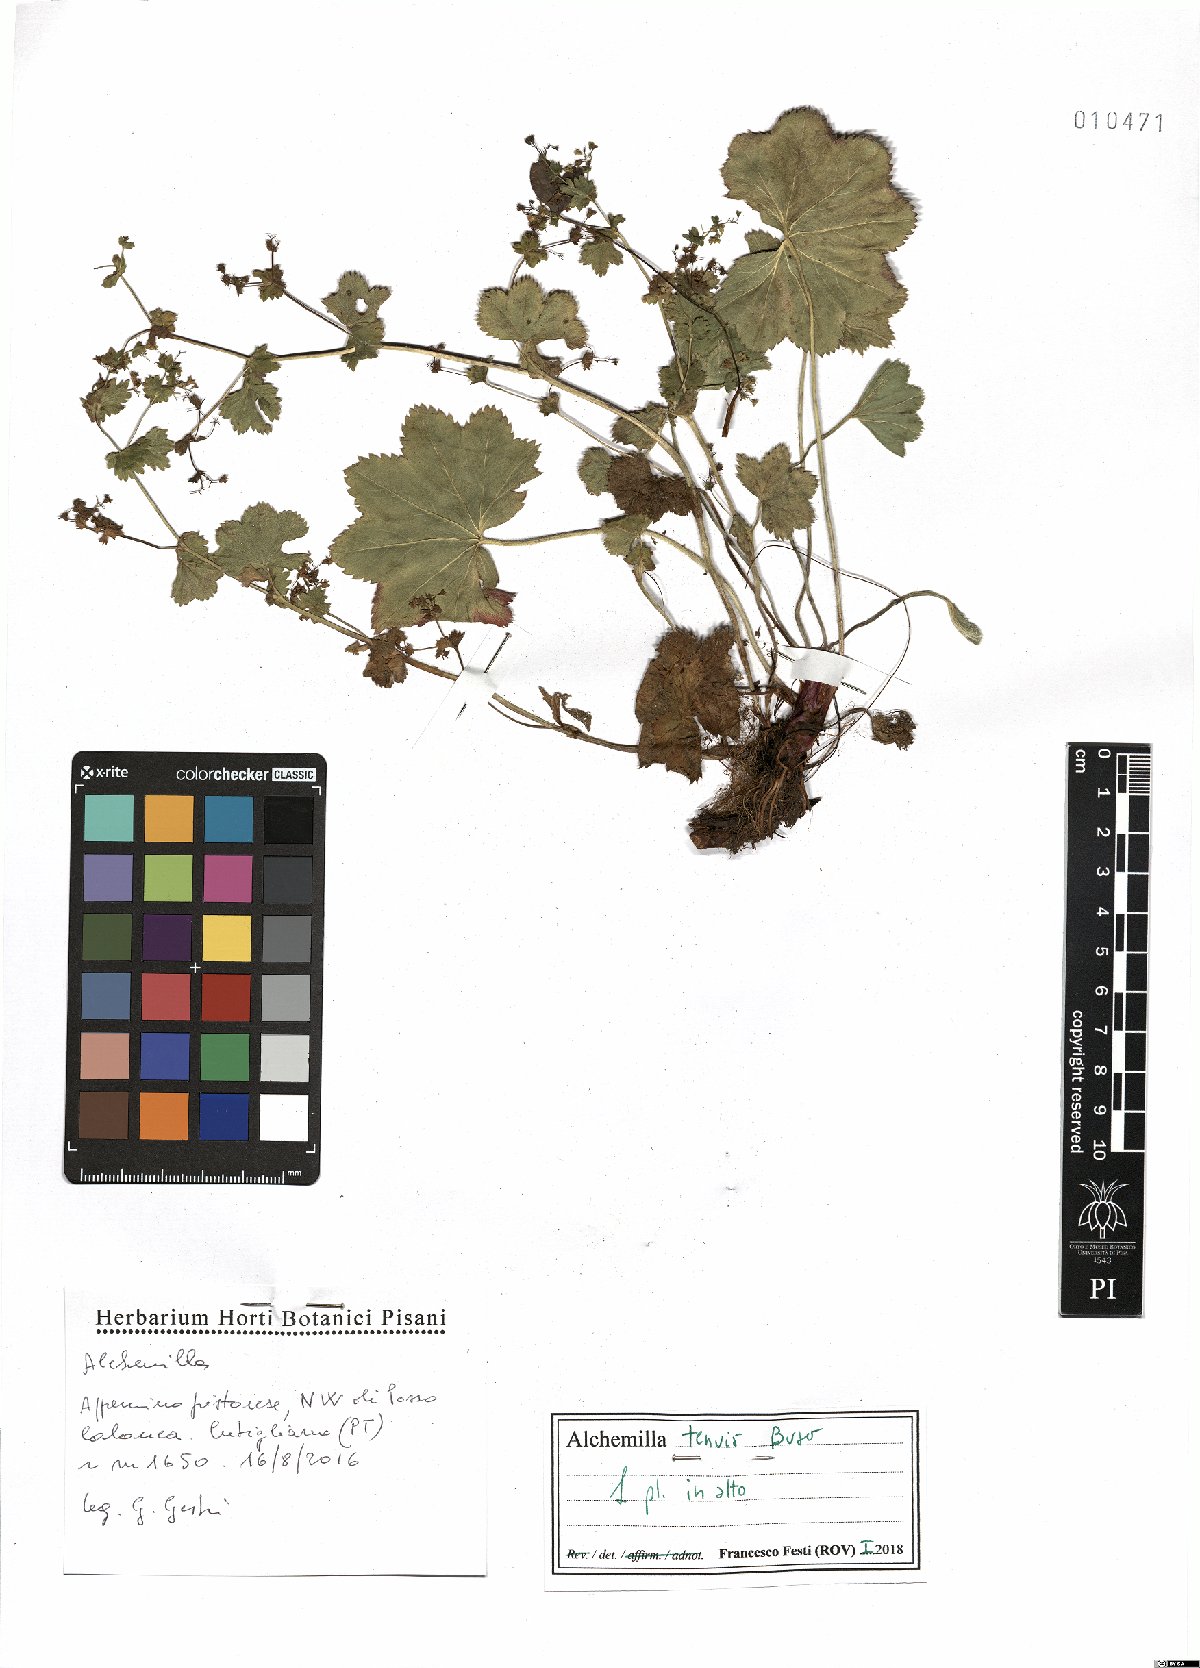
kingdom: Plantae
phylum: Tracheophyta
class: Magnoliopsida
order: Rosales
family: Rosaceae
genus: Alchemilla
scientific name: Alchemilla tenuis
